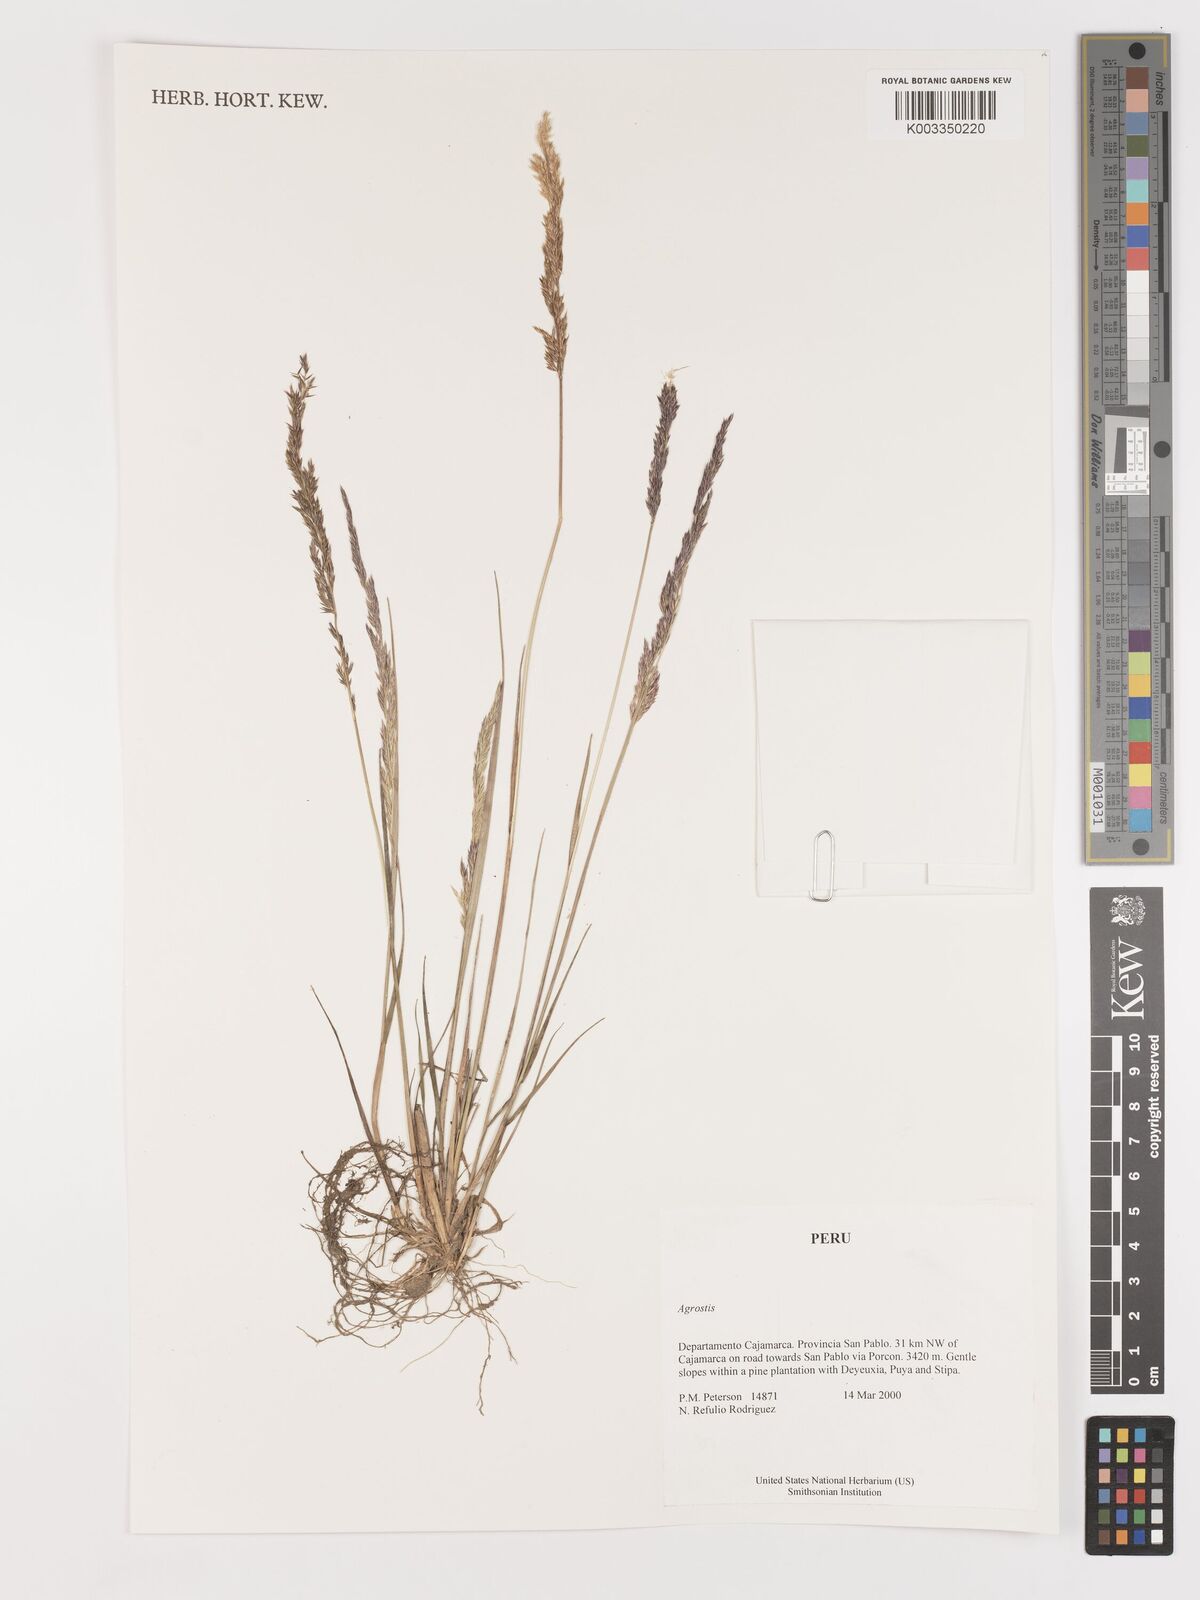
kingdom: Plantae
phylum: Tracheophyta
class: Liliopsida
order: Poales
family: Poaceae
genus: Agrostis
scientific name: Agrostis
